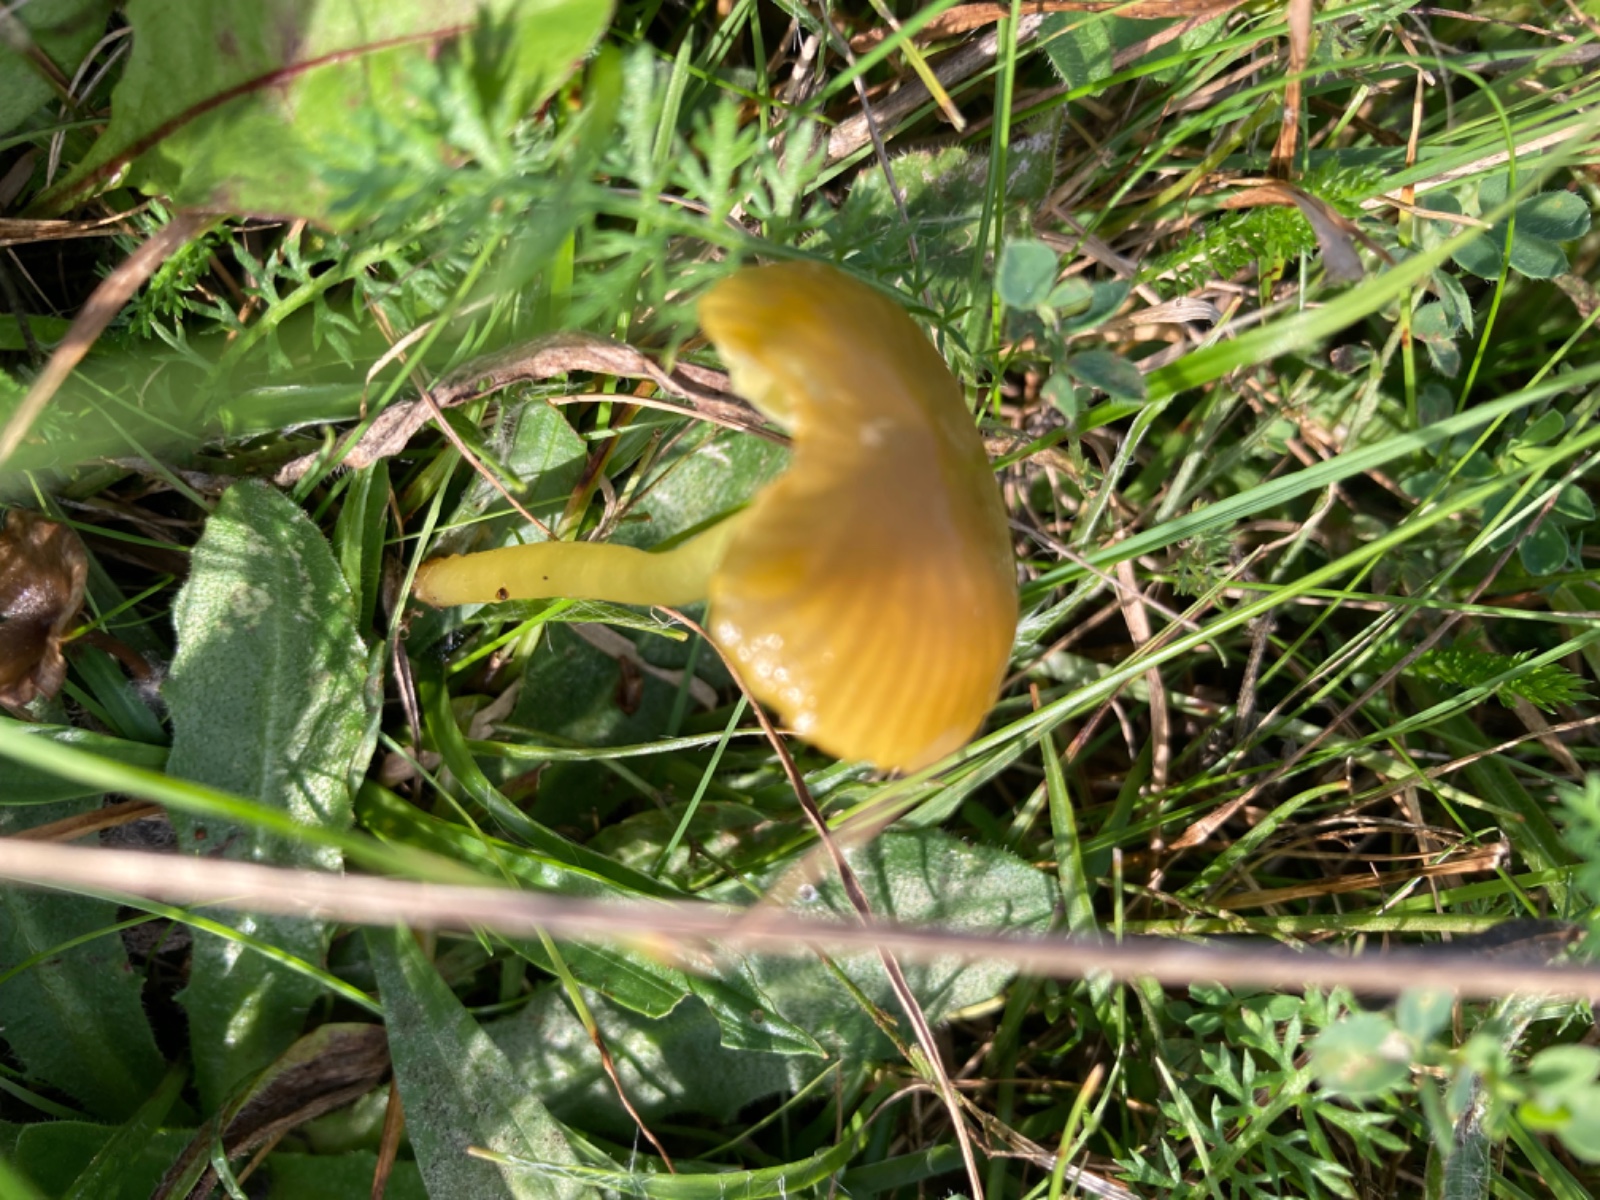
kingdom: Fungi
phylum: Basidiomycota
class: Agaricomycetes
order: Agaricales
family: Hygrophoraceae
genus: Gliophorus
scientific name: Gliophorus psittacinus
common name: papegøje-vokshat
